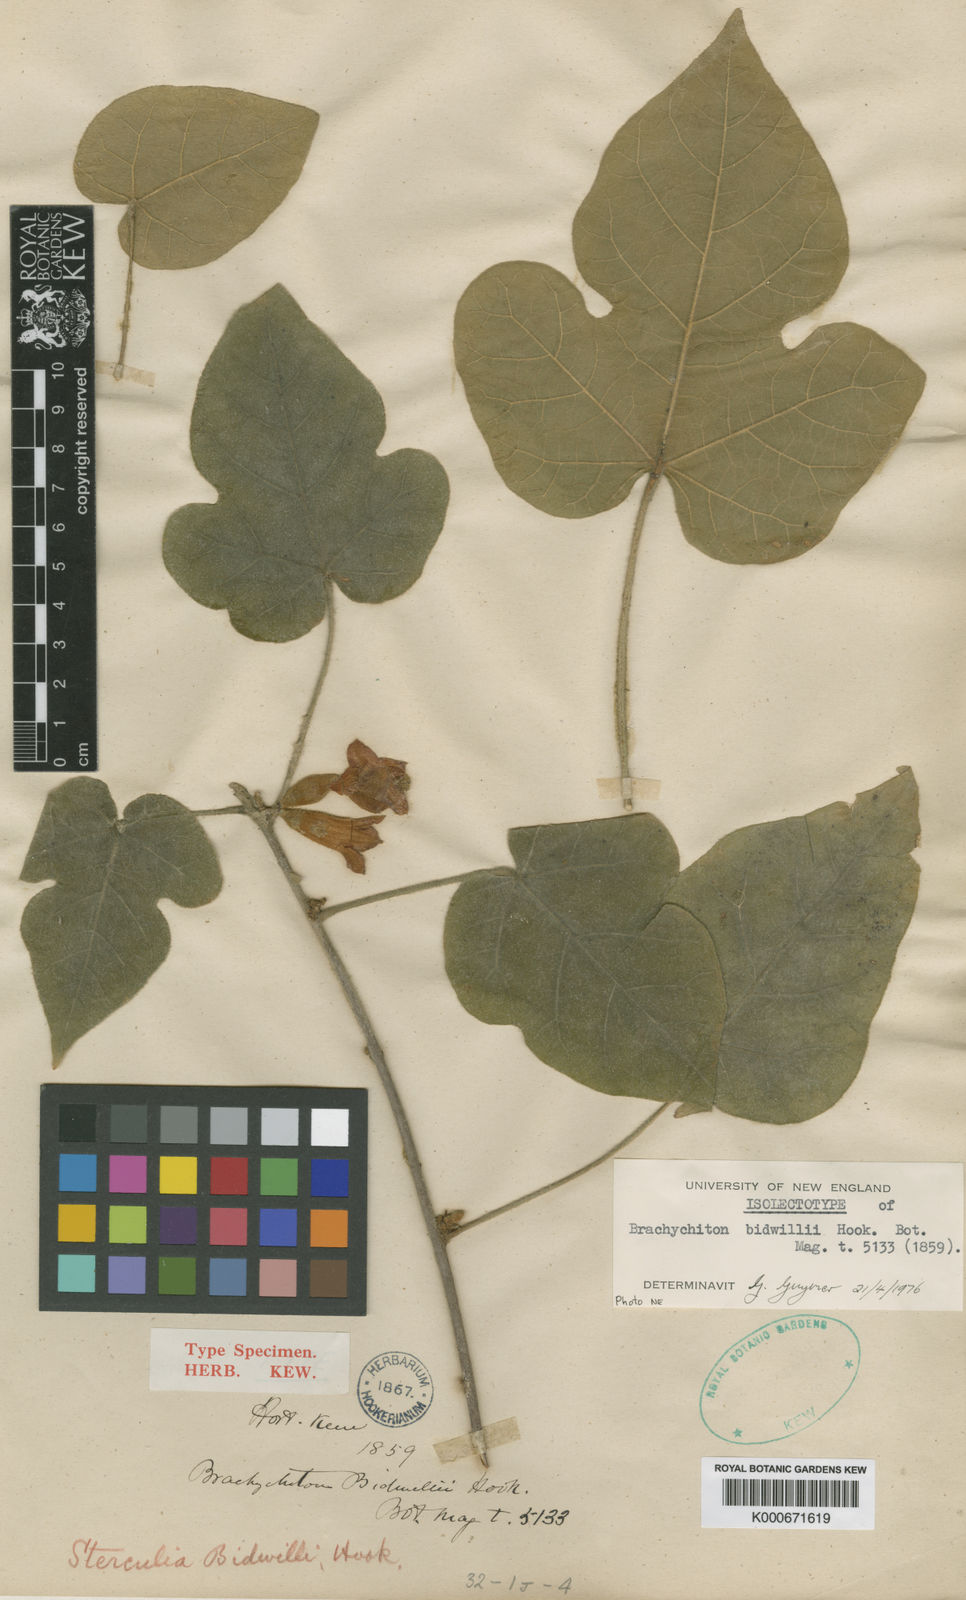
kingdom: Plantae
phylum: Tracheophyta
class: Magnoliopsida
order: Malvales
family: Malvaceae
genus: Brachychiton
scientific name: Brachychiton bidwillii
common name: Little kurrajong
